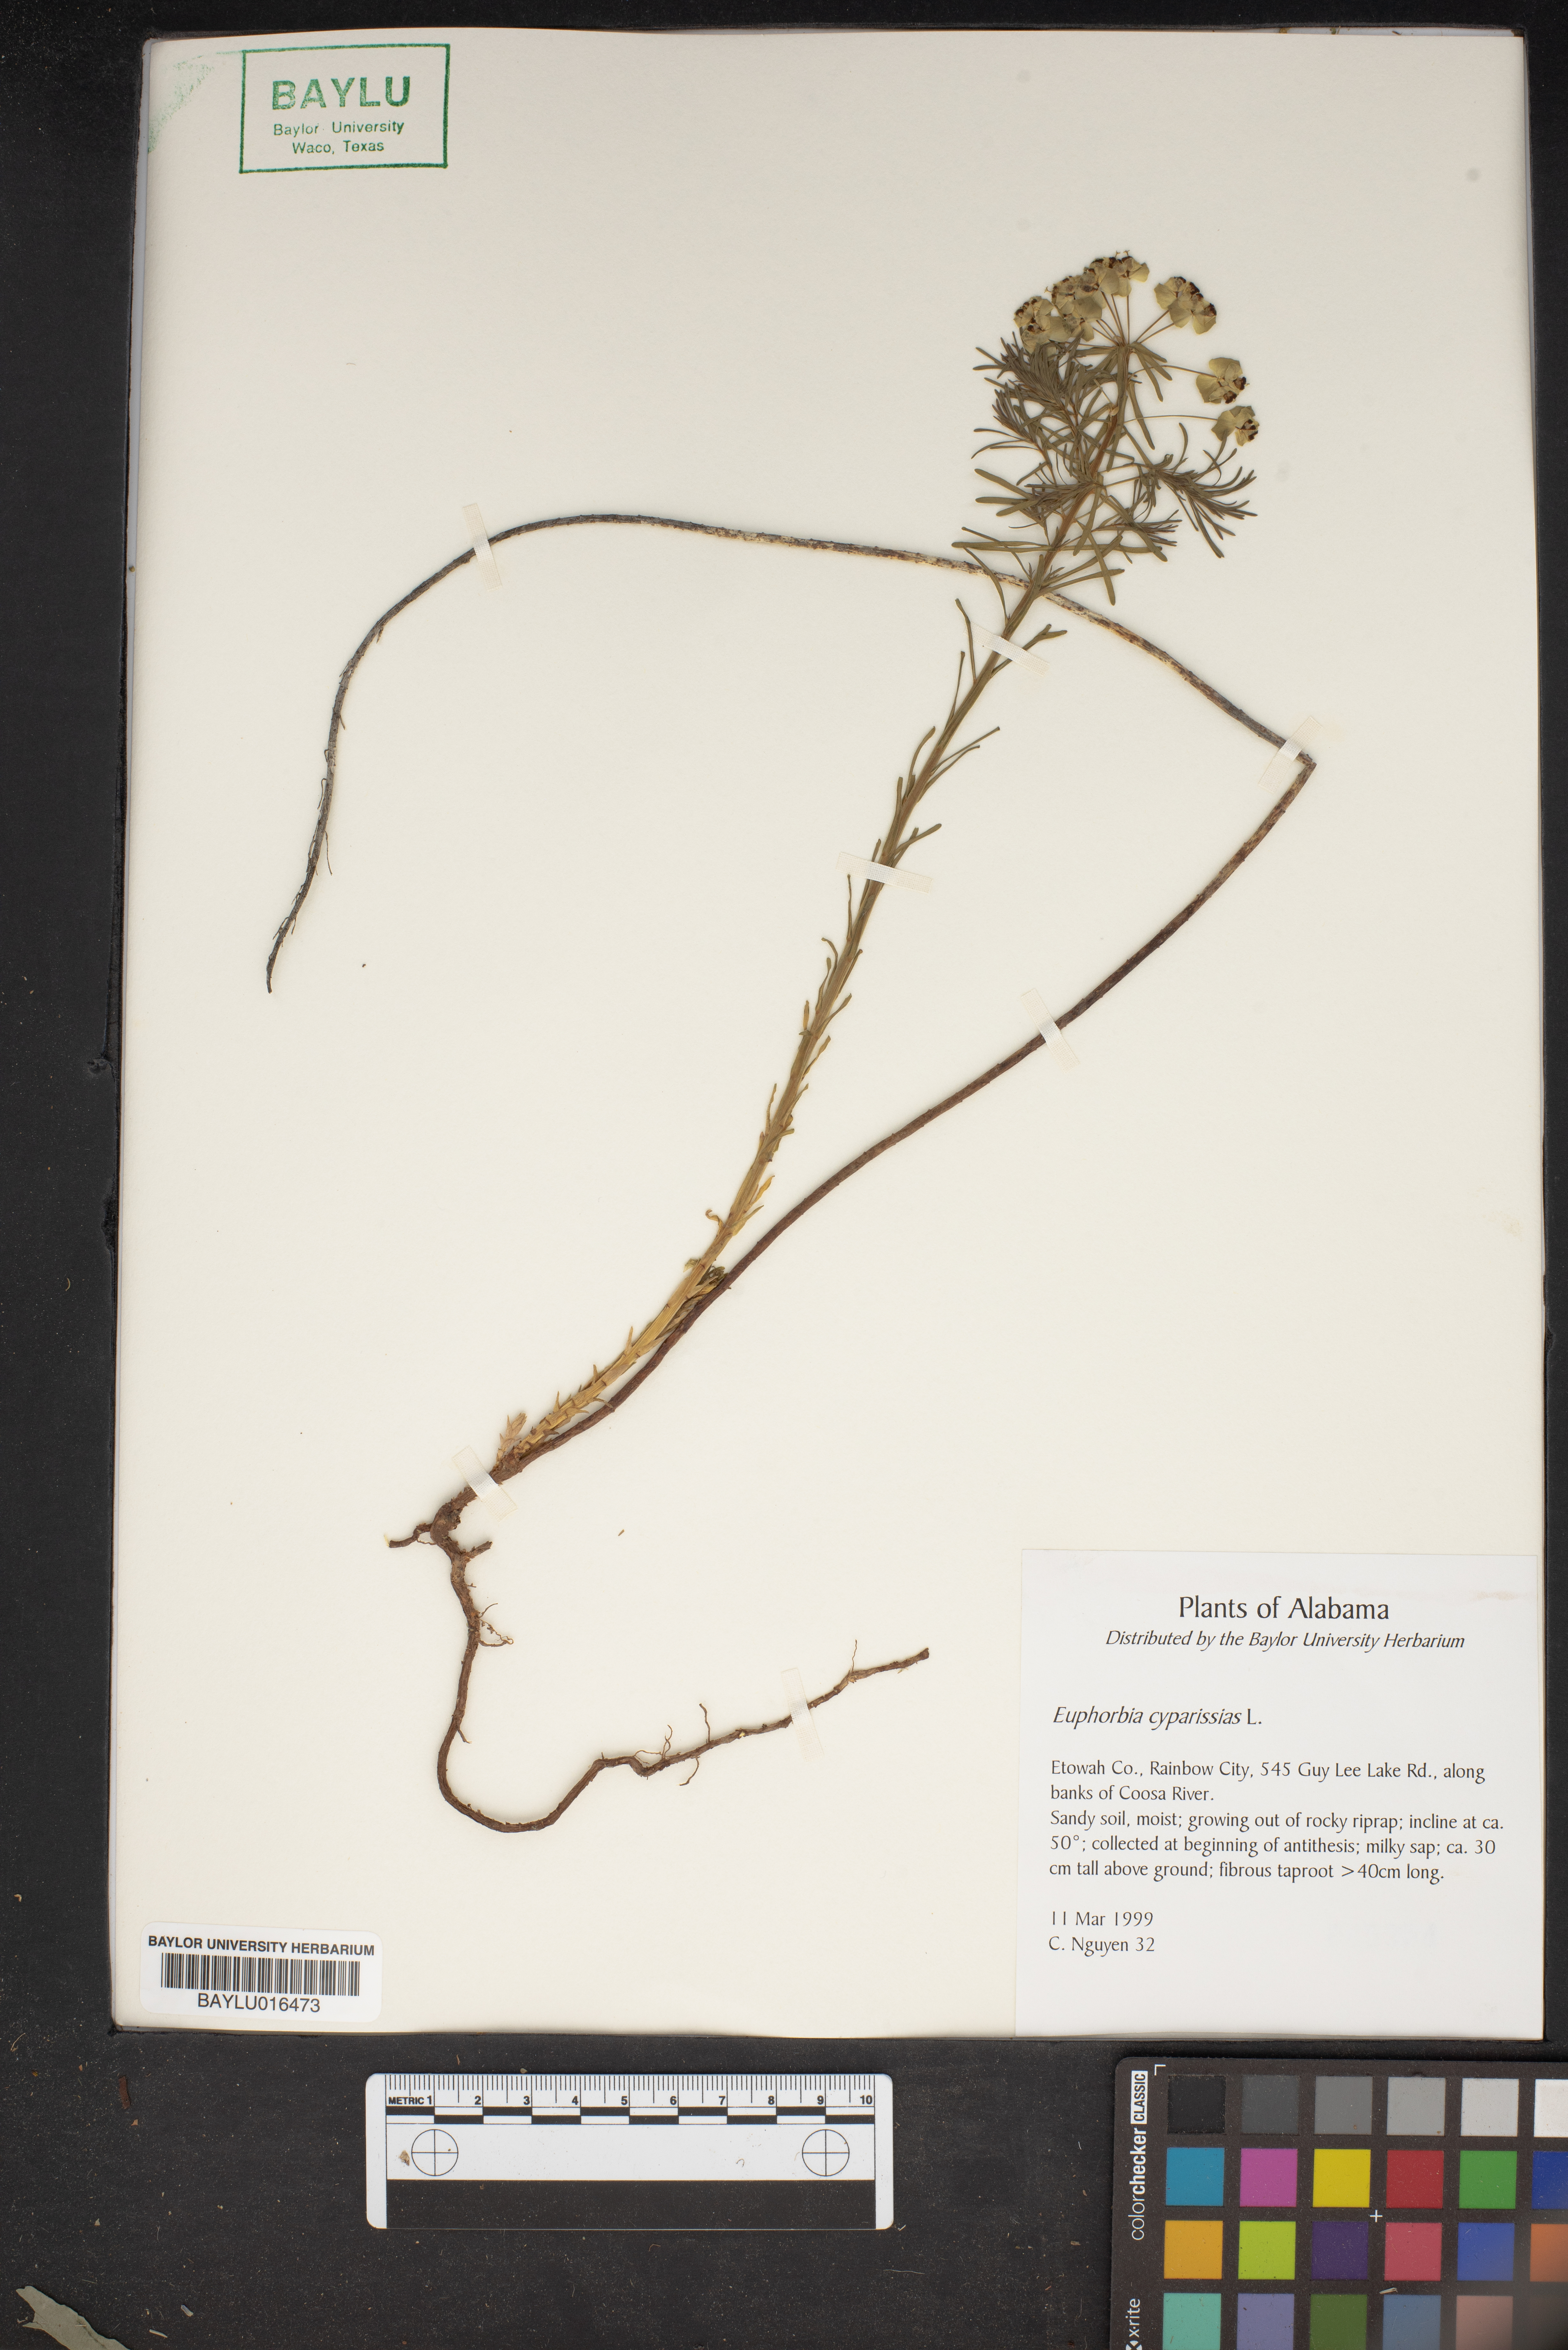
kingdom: Plantae
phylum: Tracheophyta
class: Magnoliopsida
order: Malpighiales
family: Euphorbiaceae
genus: Euphorbia
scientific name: Euphorbia cyparissias
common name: Cypress spurge
